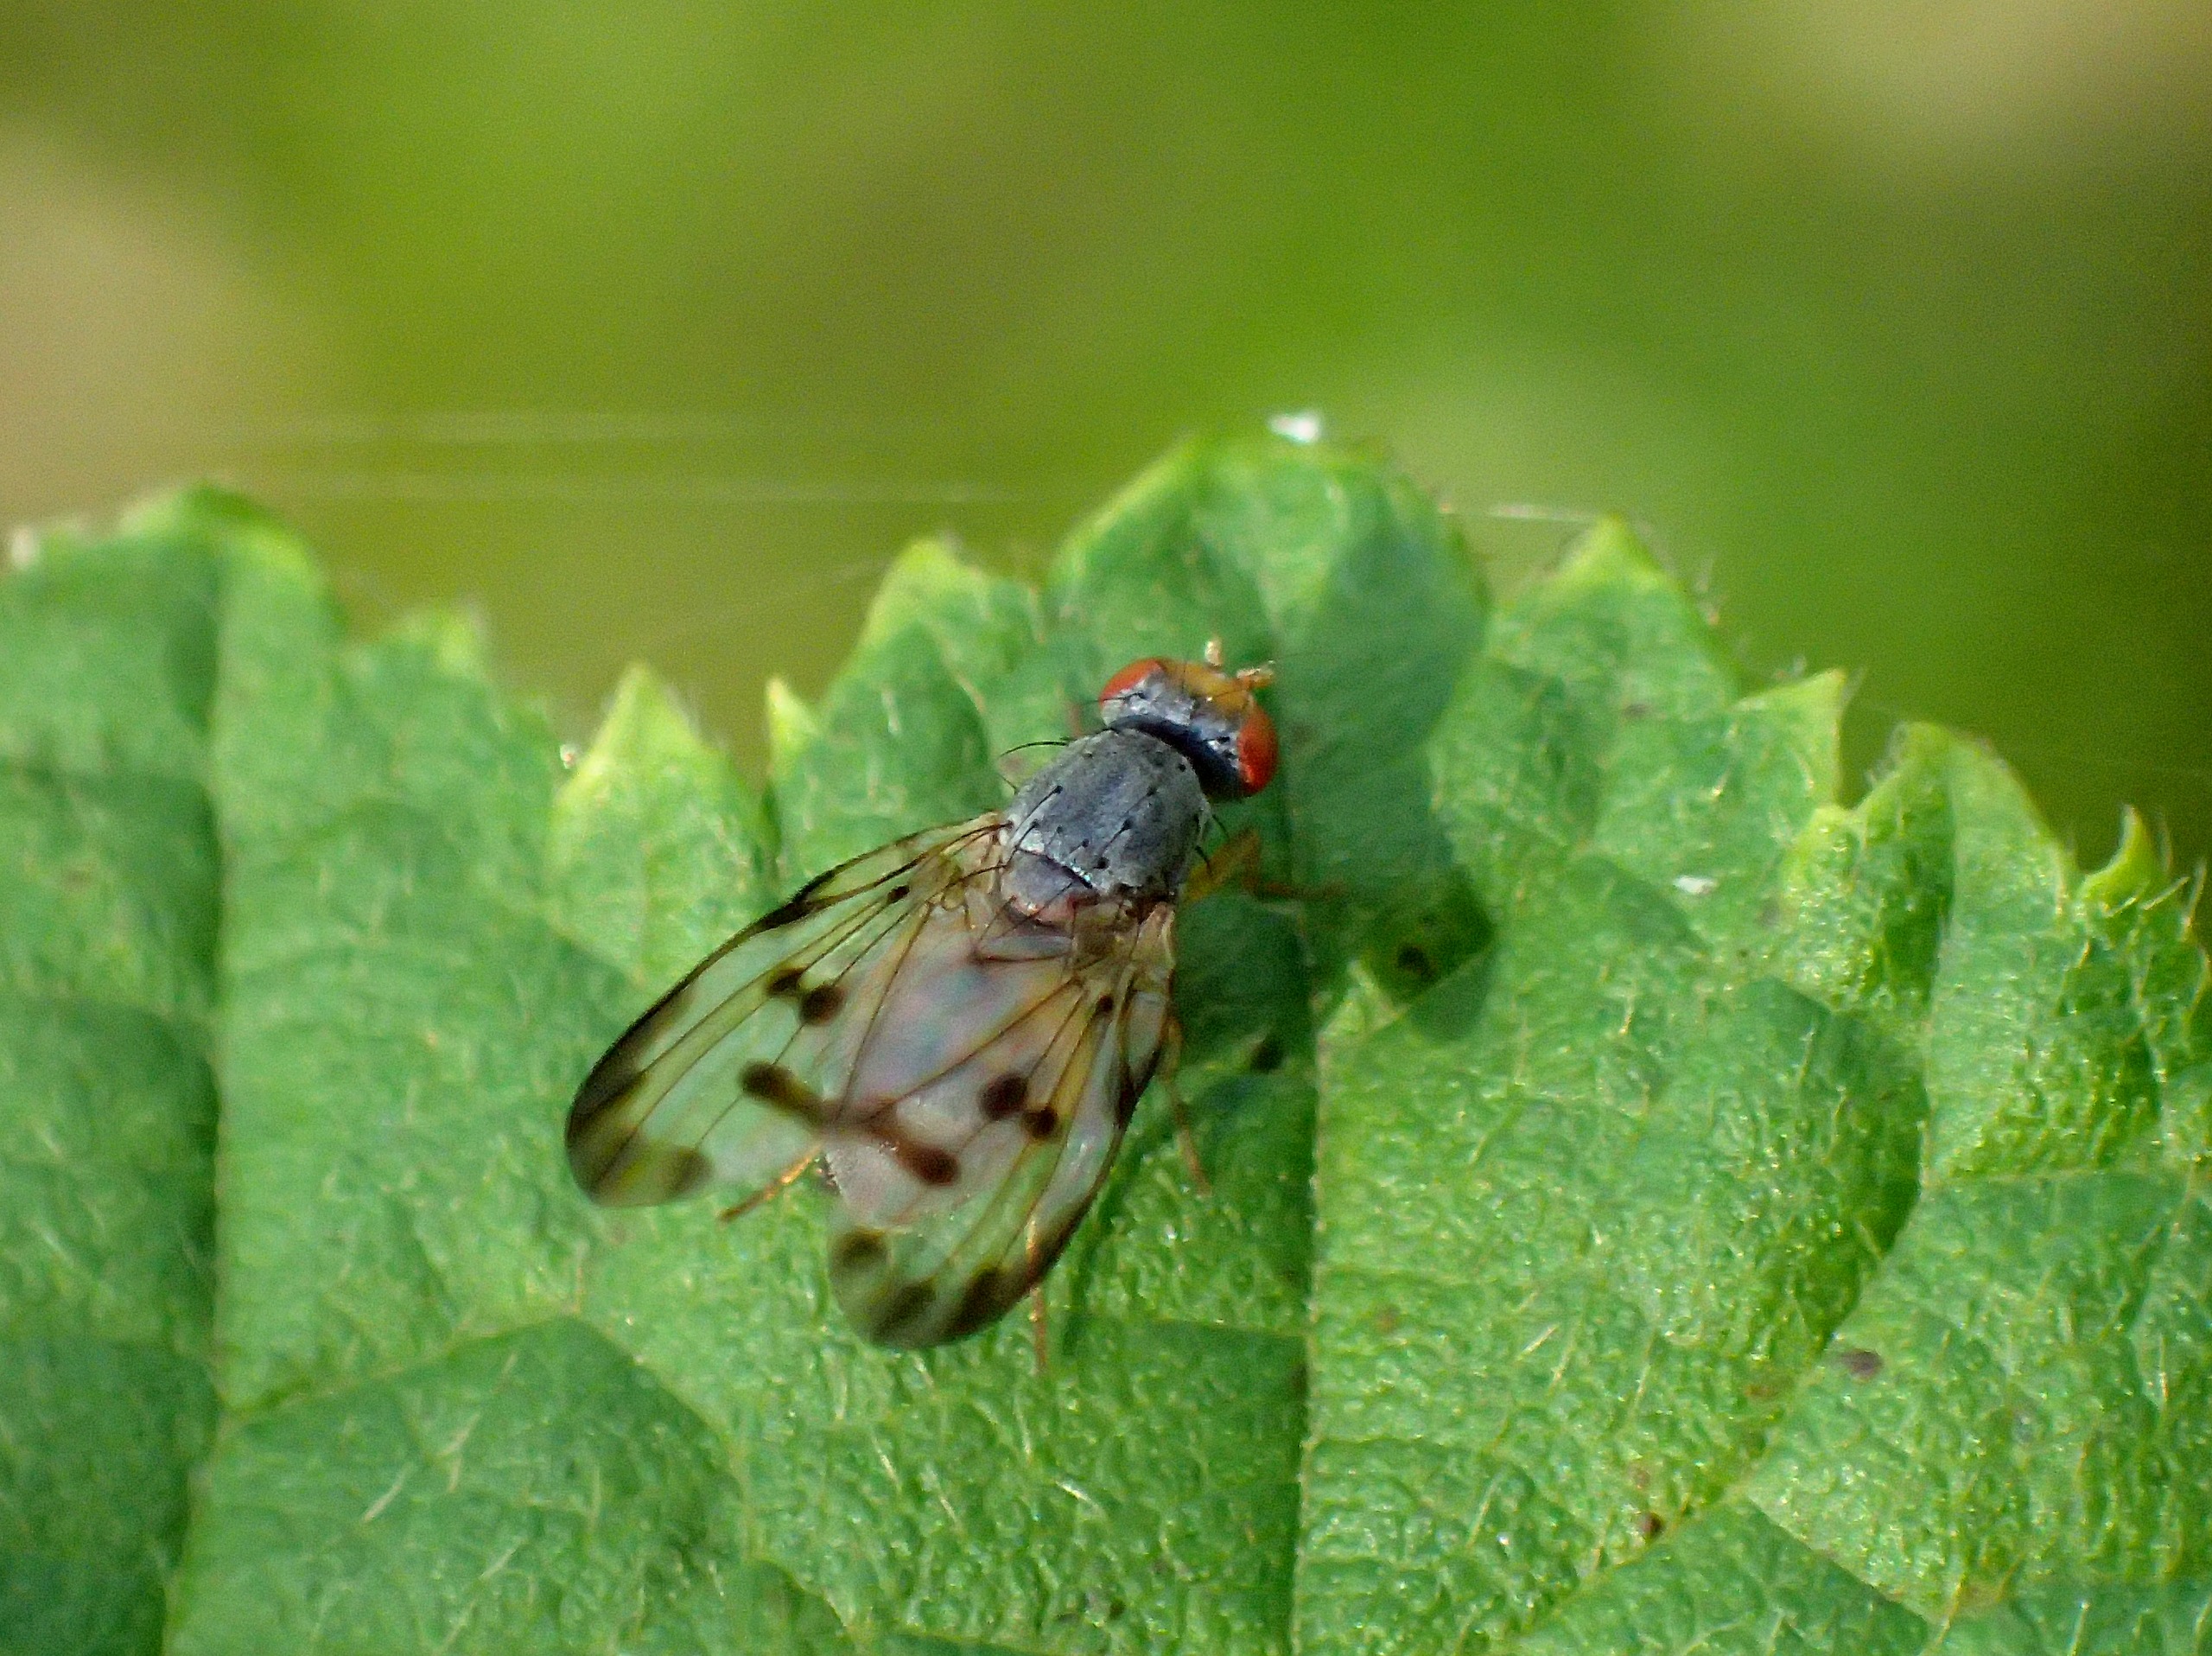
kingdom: Animalia
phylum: Arthropoda
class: Insecta
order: Diptera
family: Pallopteridae
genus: Palloptera
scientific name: Palloptera umbellatarum
